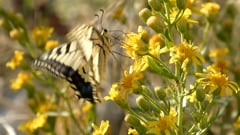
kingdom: Animalia
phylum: Arthropoda
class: Insecta
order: Lepidoptera
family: Papilionidae
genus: Papilio
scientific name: Papilio machaon
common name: Swallowtail
